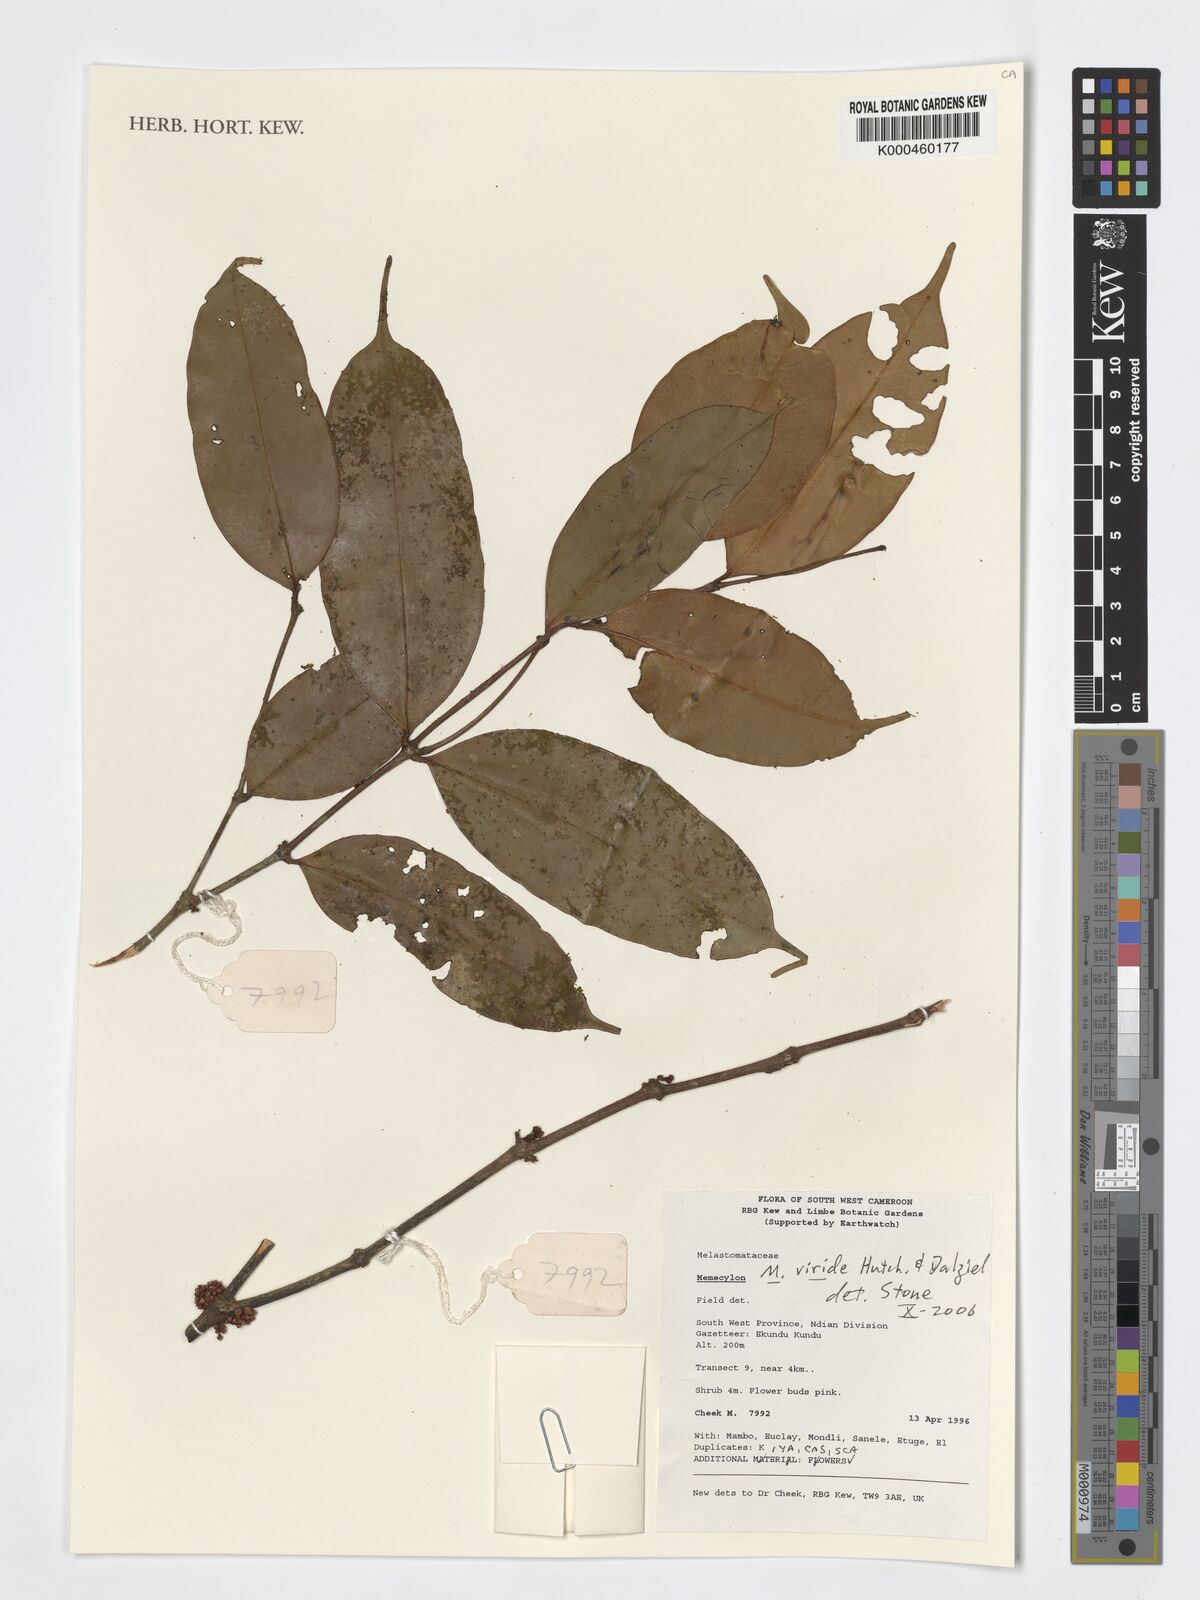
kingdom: Plantae
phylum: Tracheophyta
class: Magnoliopsida
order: Myrtales
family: Melastomataceae
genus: Memecylon
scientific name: Memecylon viride
